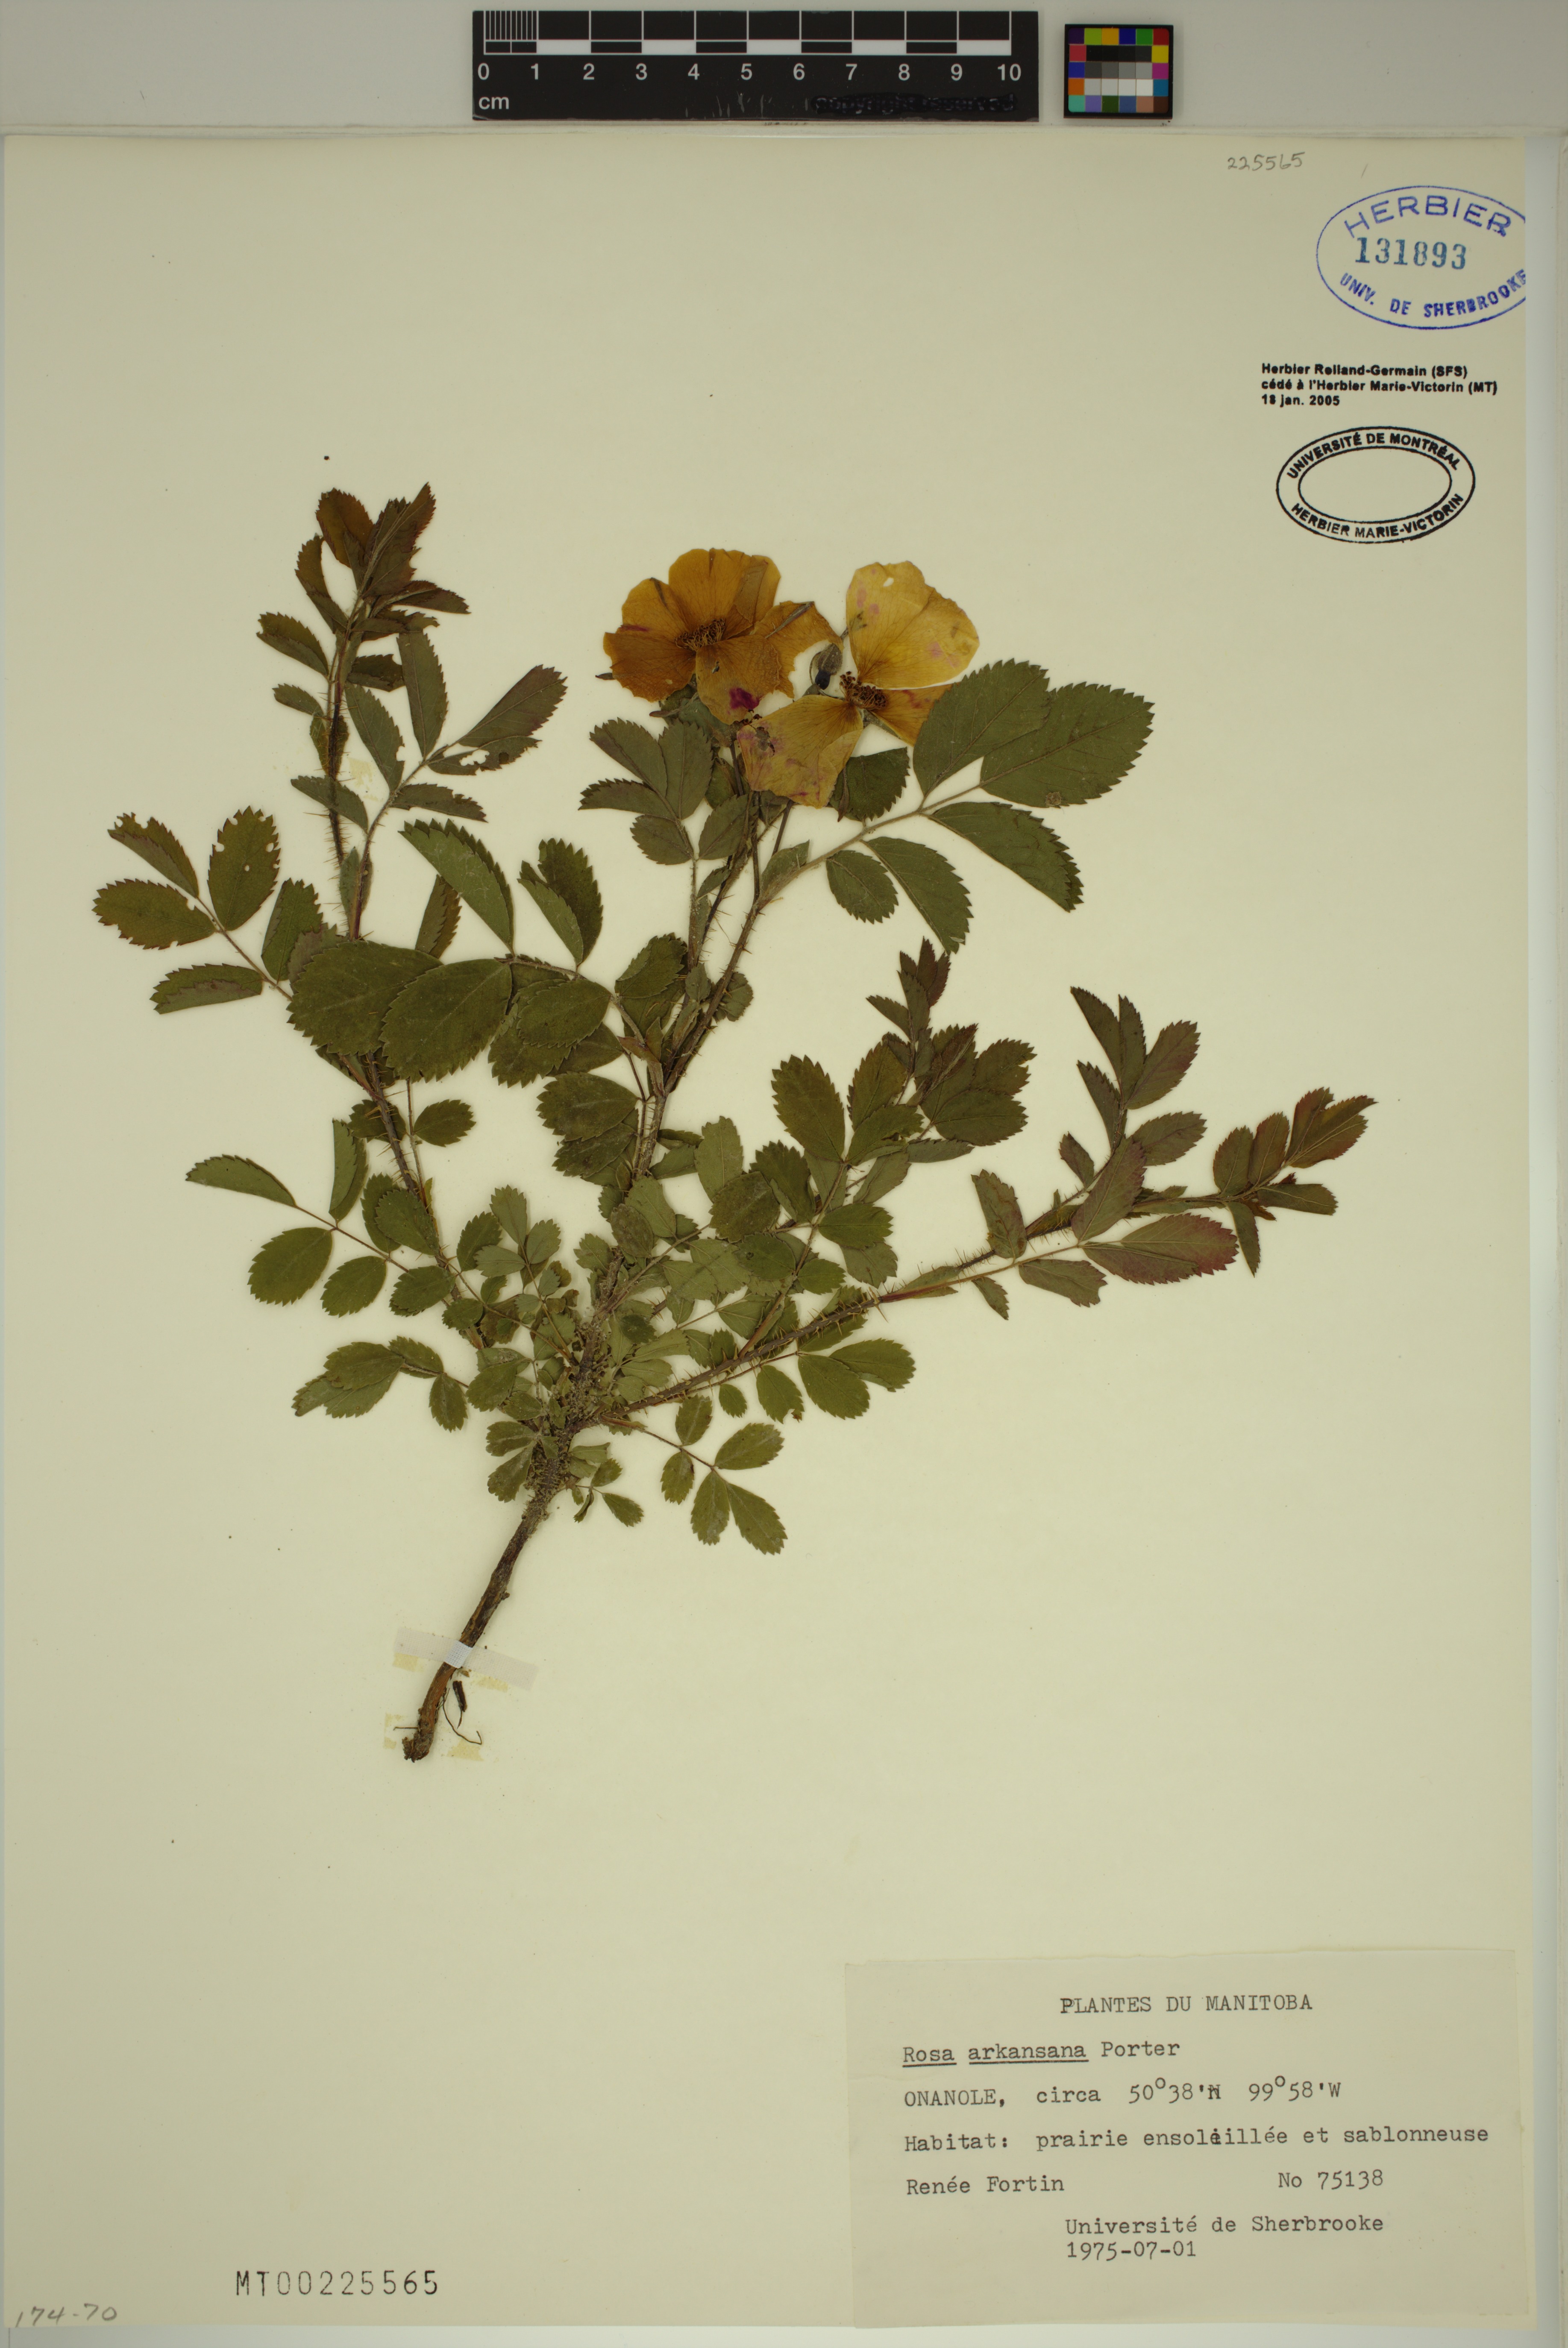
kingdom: Plantae
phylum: Tracheophyta
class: Magnoliopsida
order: Rosales
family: Rosaceae
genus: Rosa
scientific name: Rosa arkansana
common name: Prairie rose
